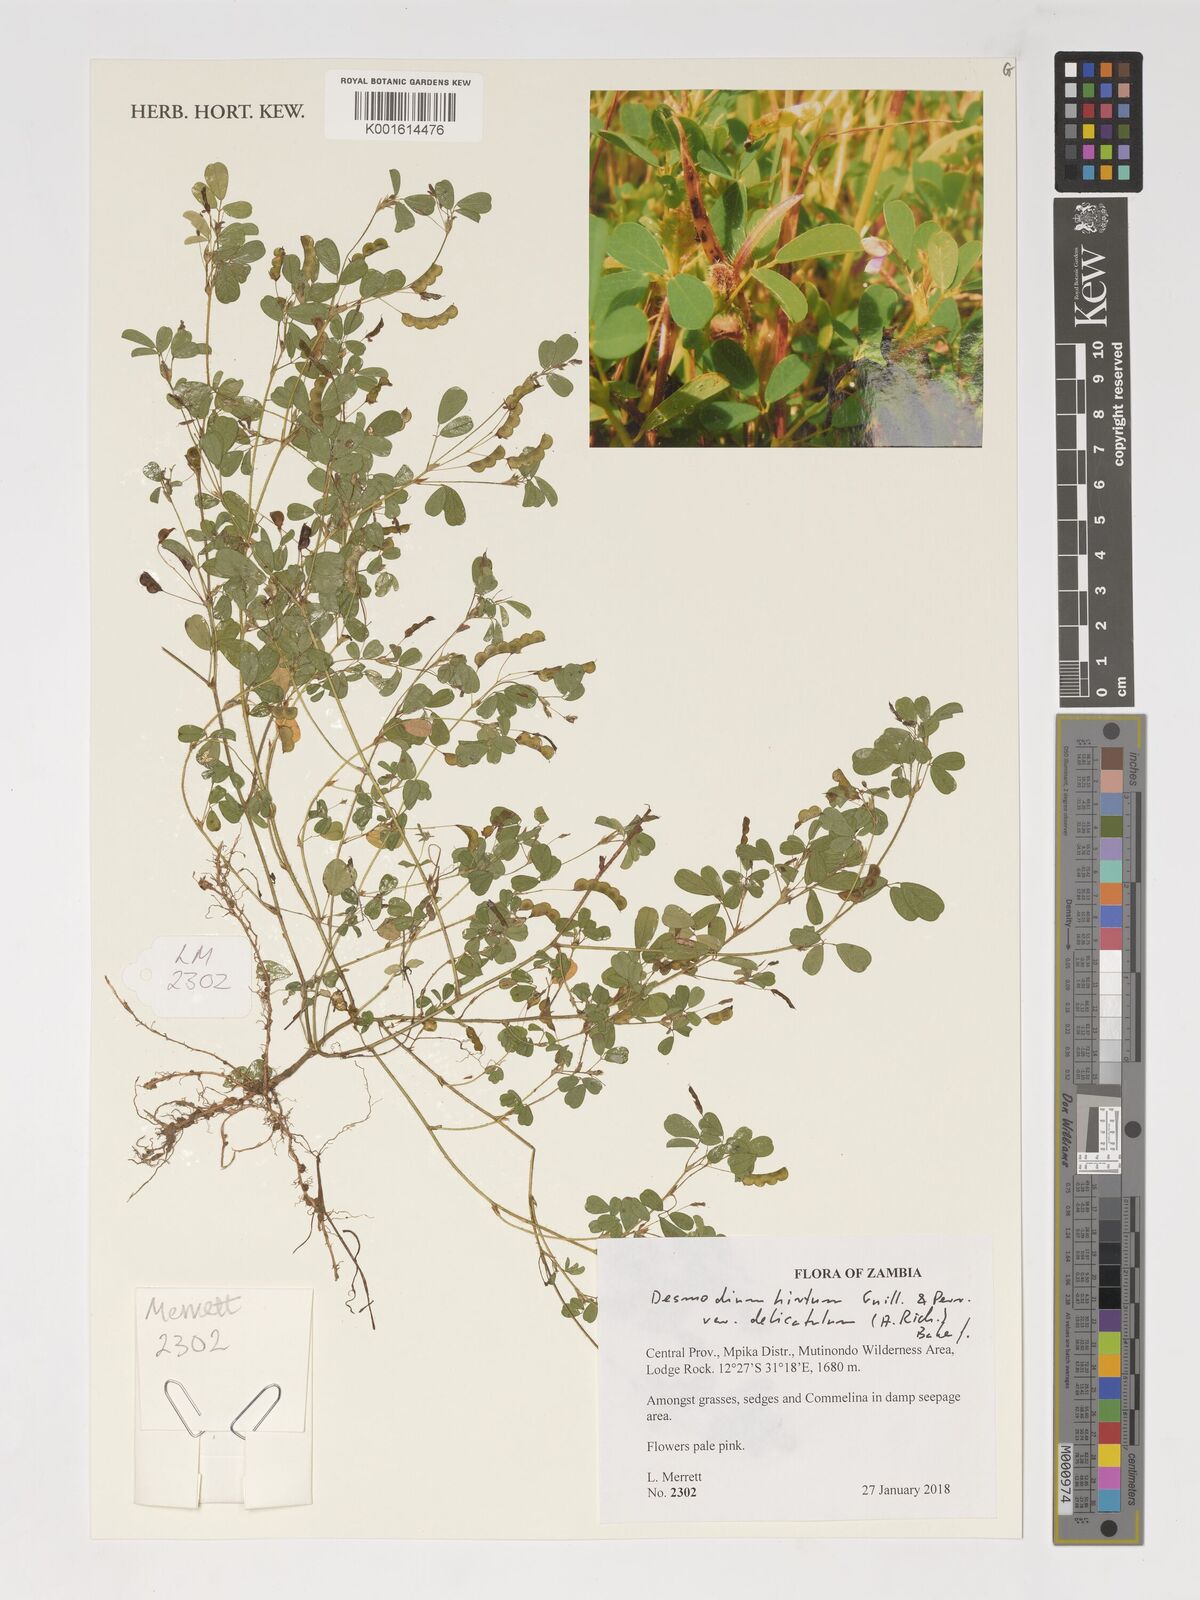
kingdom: Plantae
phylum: Tracheophyta
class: Magnoliopsida
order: Fabales
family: Fabaceae
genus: Grona
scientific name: Grona hirta
